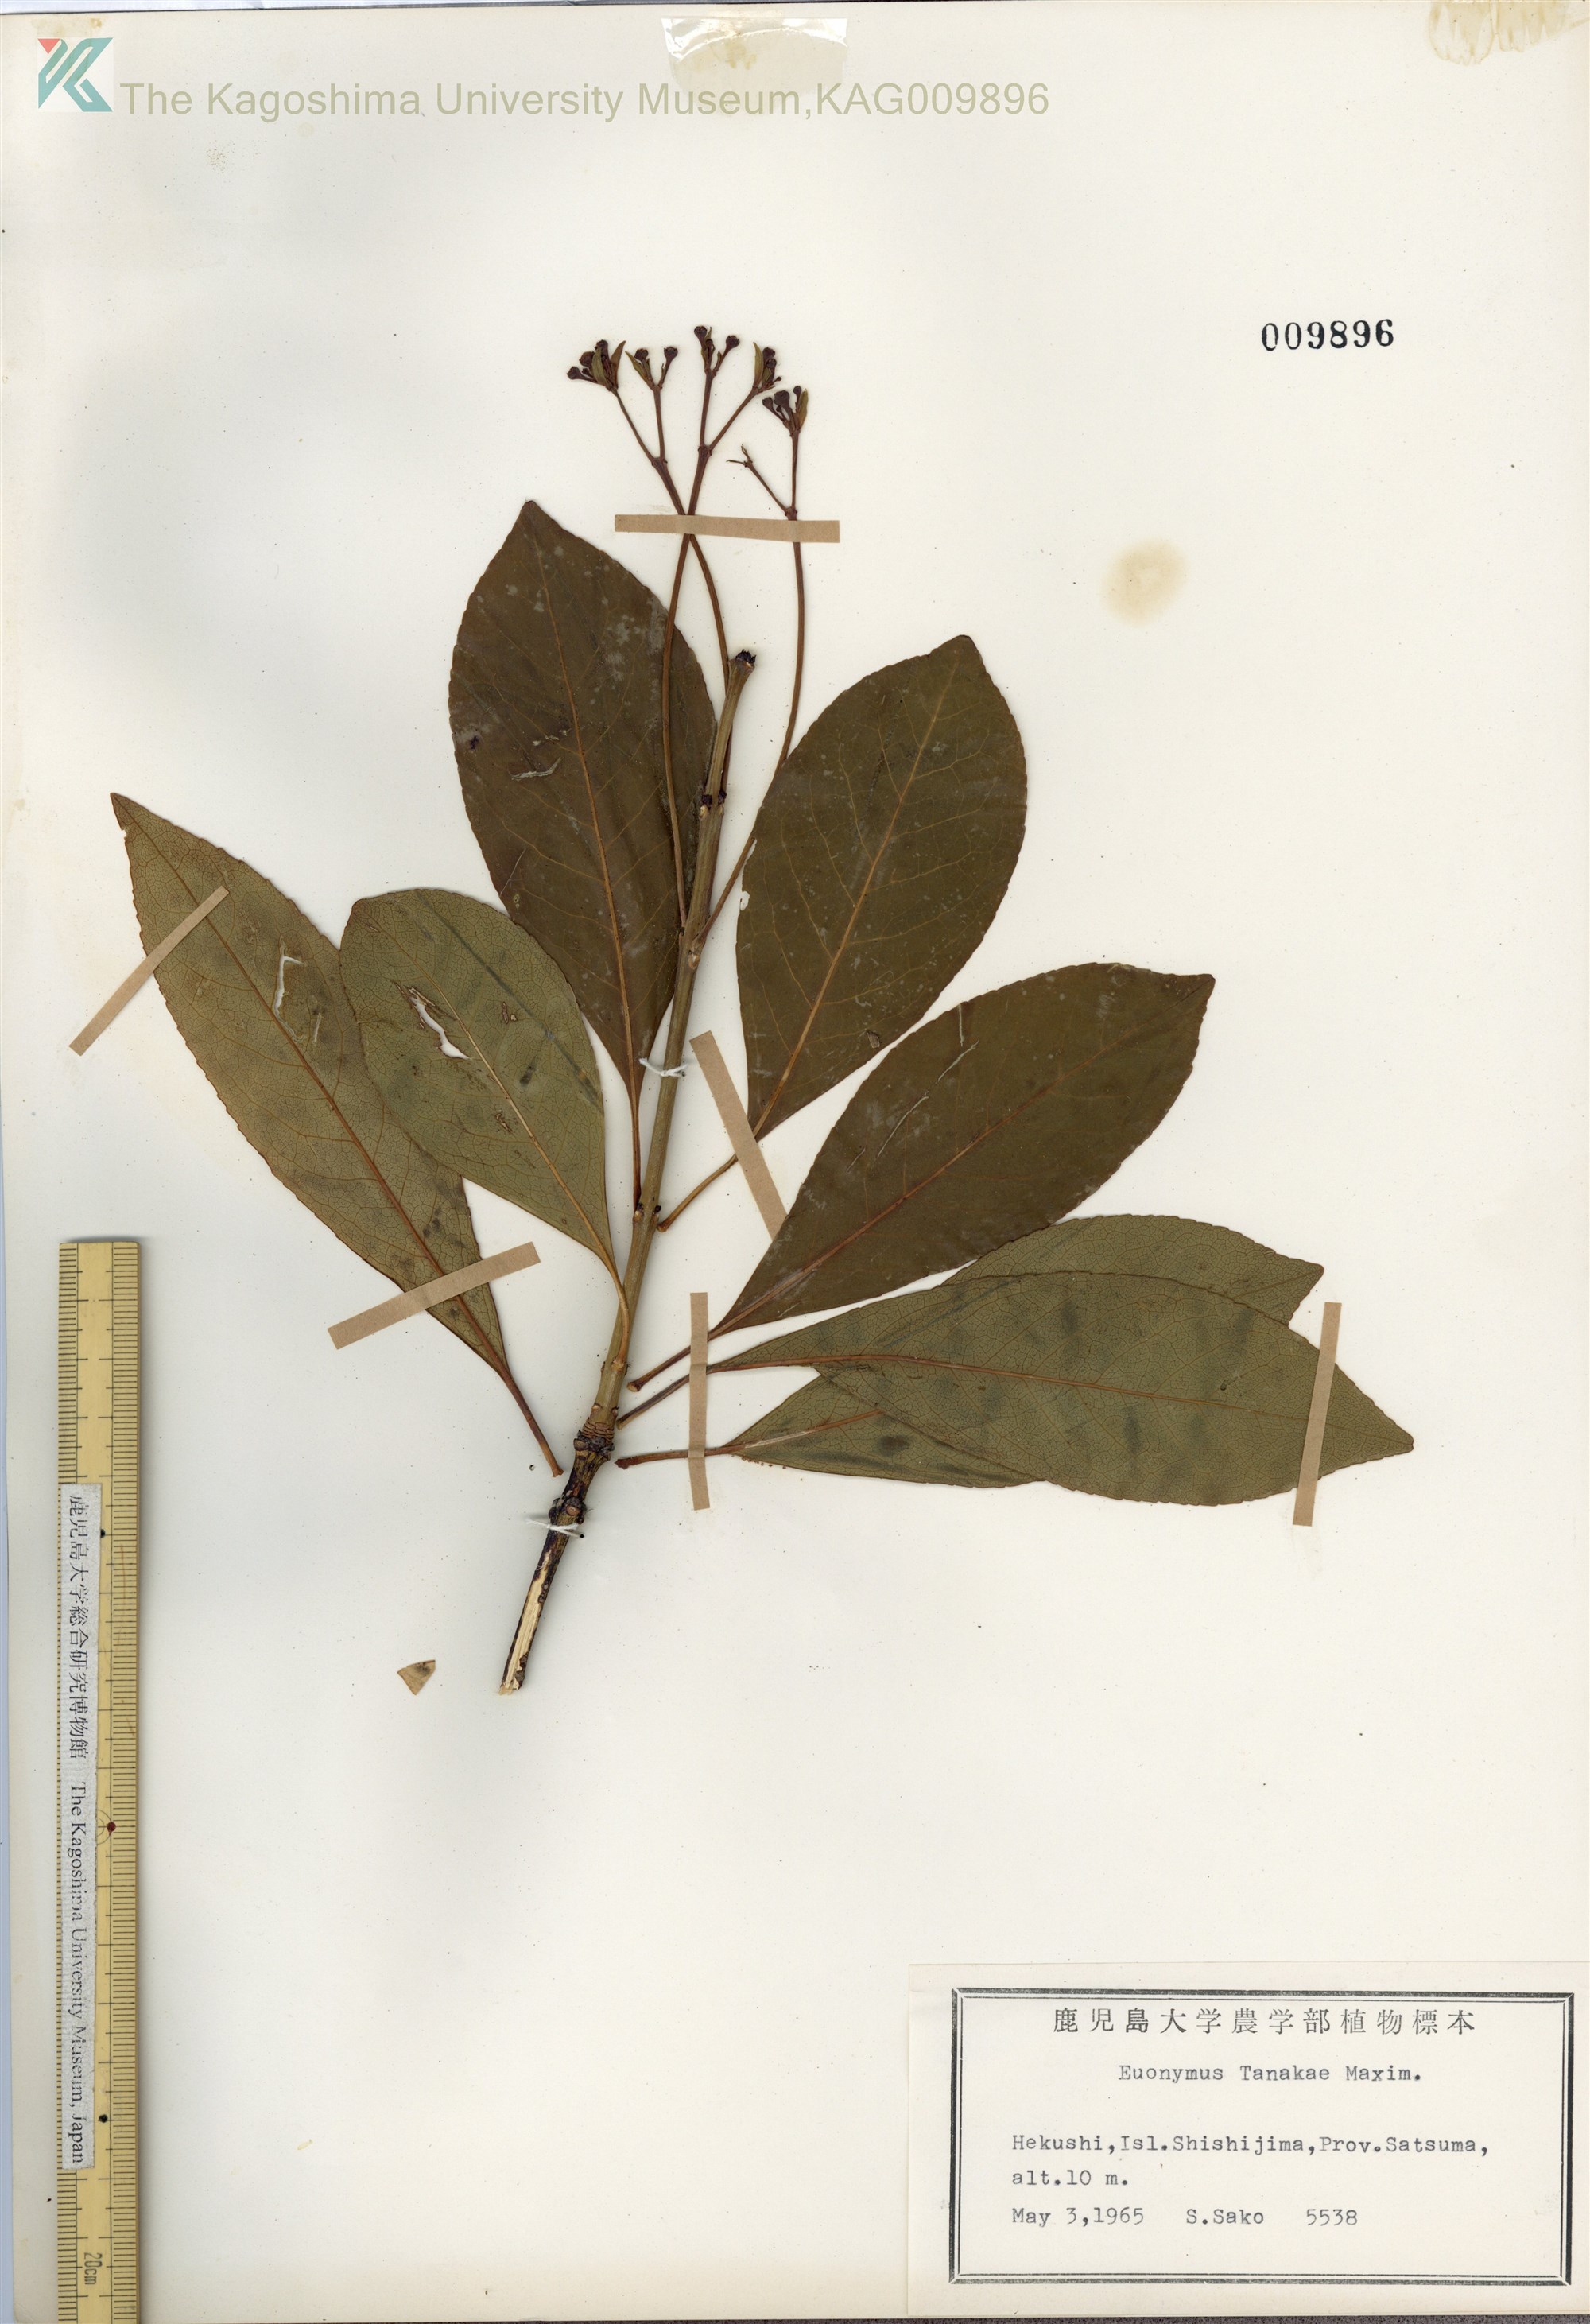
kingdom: Plantae
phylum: Tracheophyta
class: Magnoliopsida
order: Celastrales
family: Celastraceae
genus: Euonymus
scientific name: Euonymus carnosus
